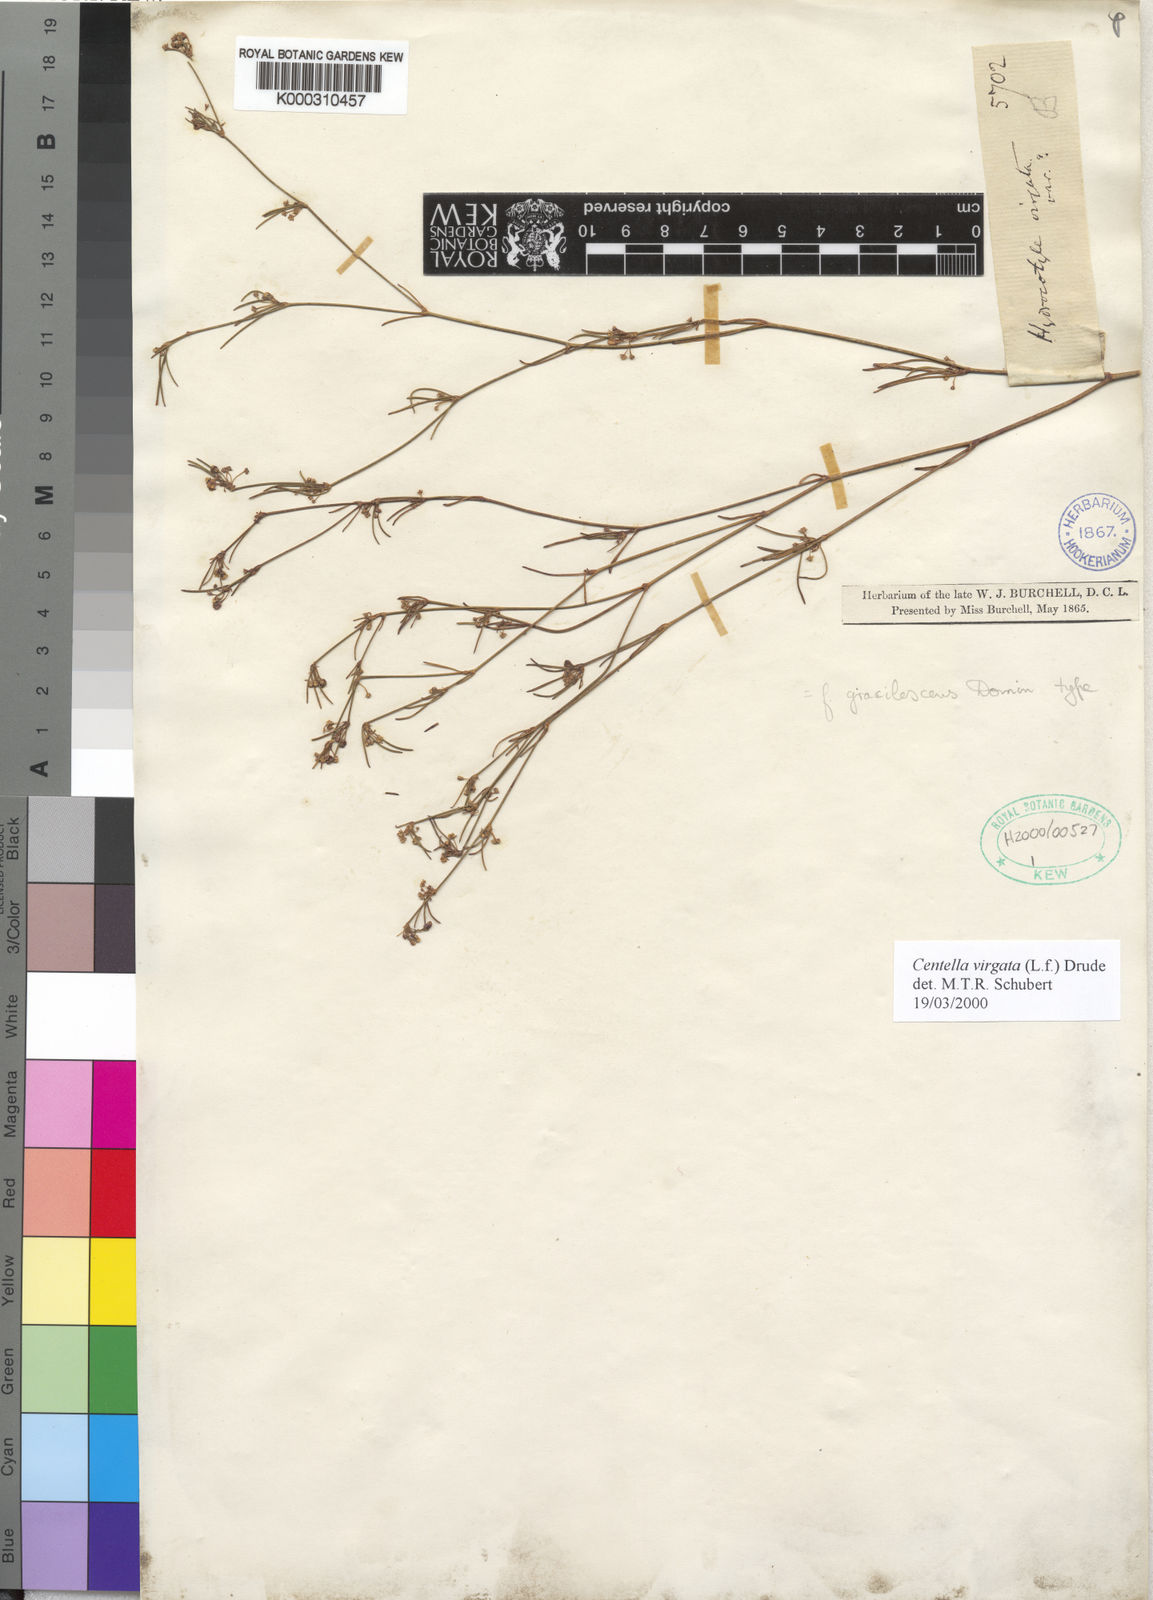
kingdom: Plantae
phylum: Tracheophyta
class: Magnoliopsida
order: Apiales
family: Apiaceae
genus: Centella
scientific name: Centella
